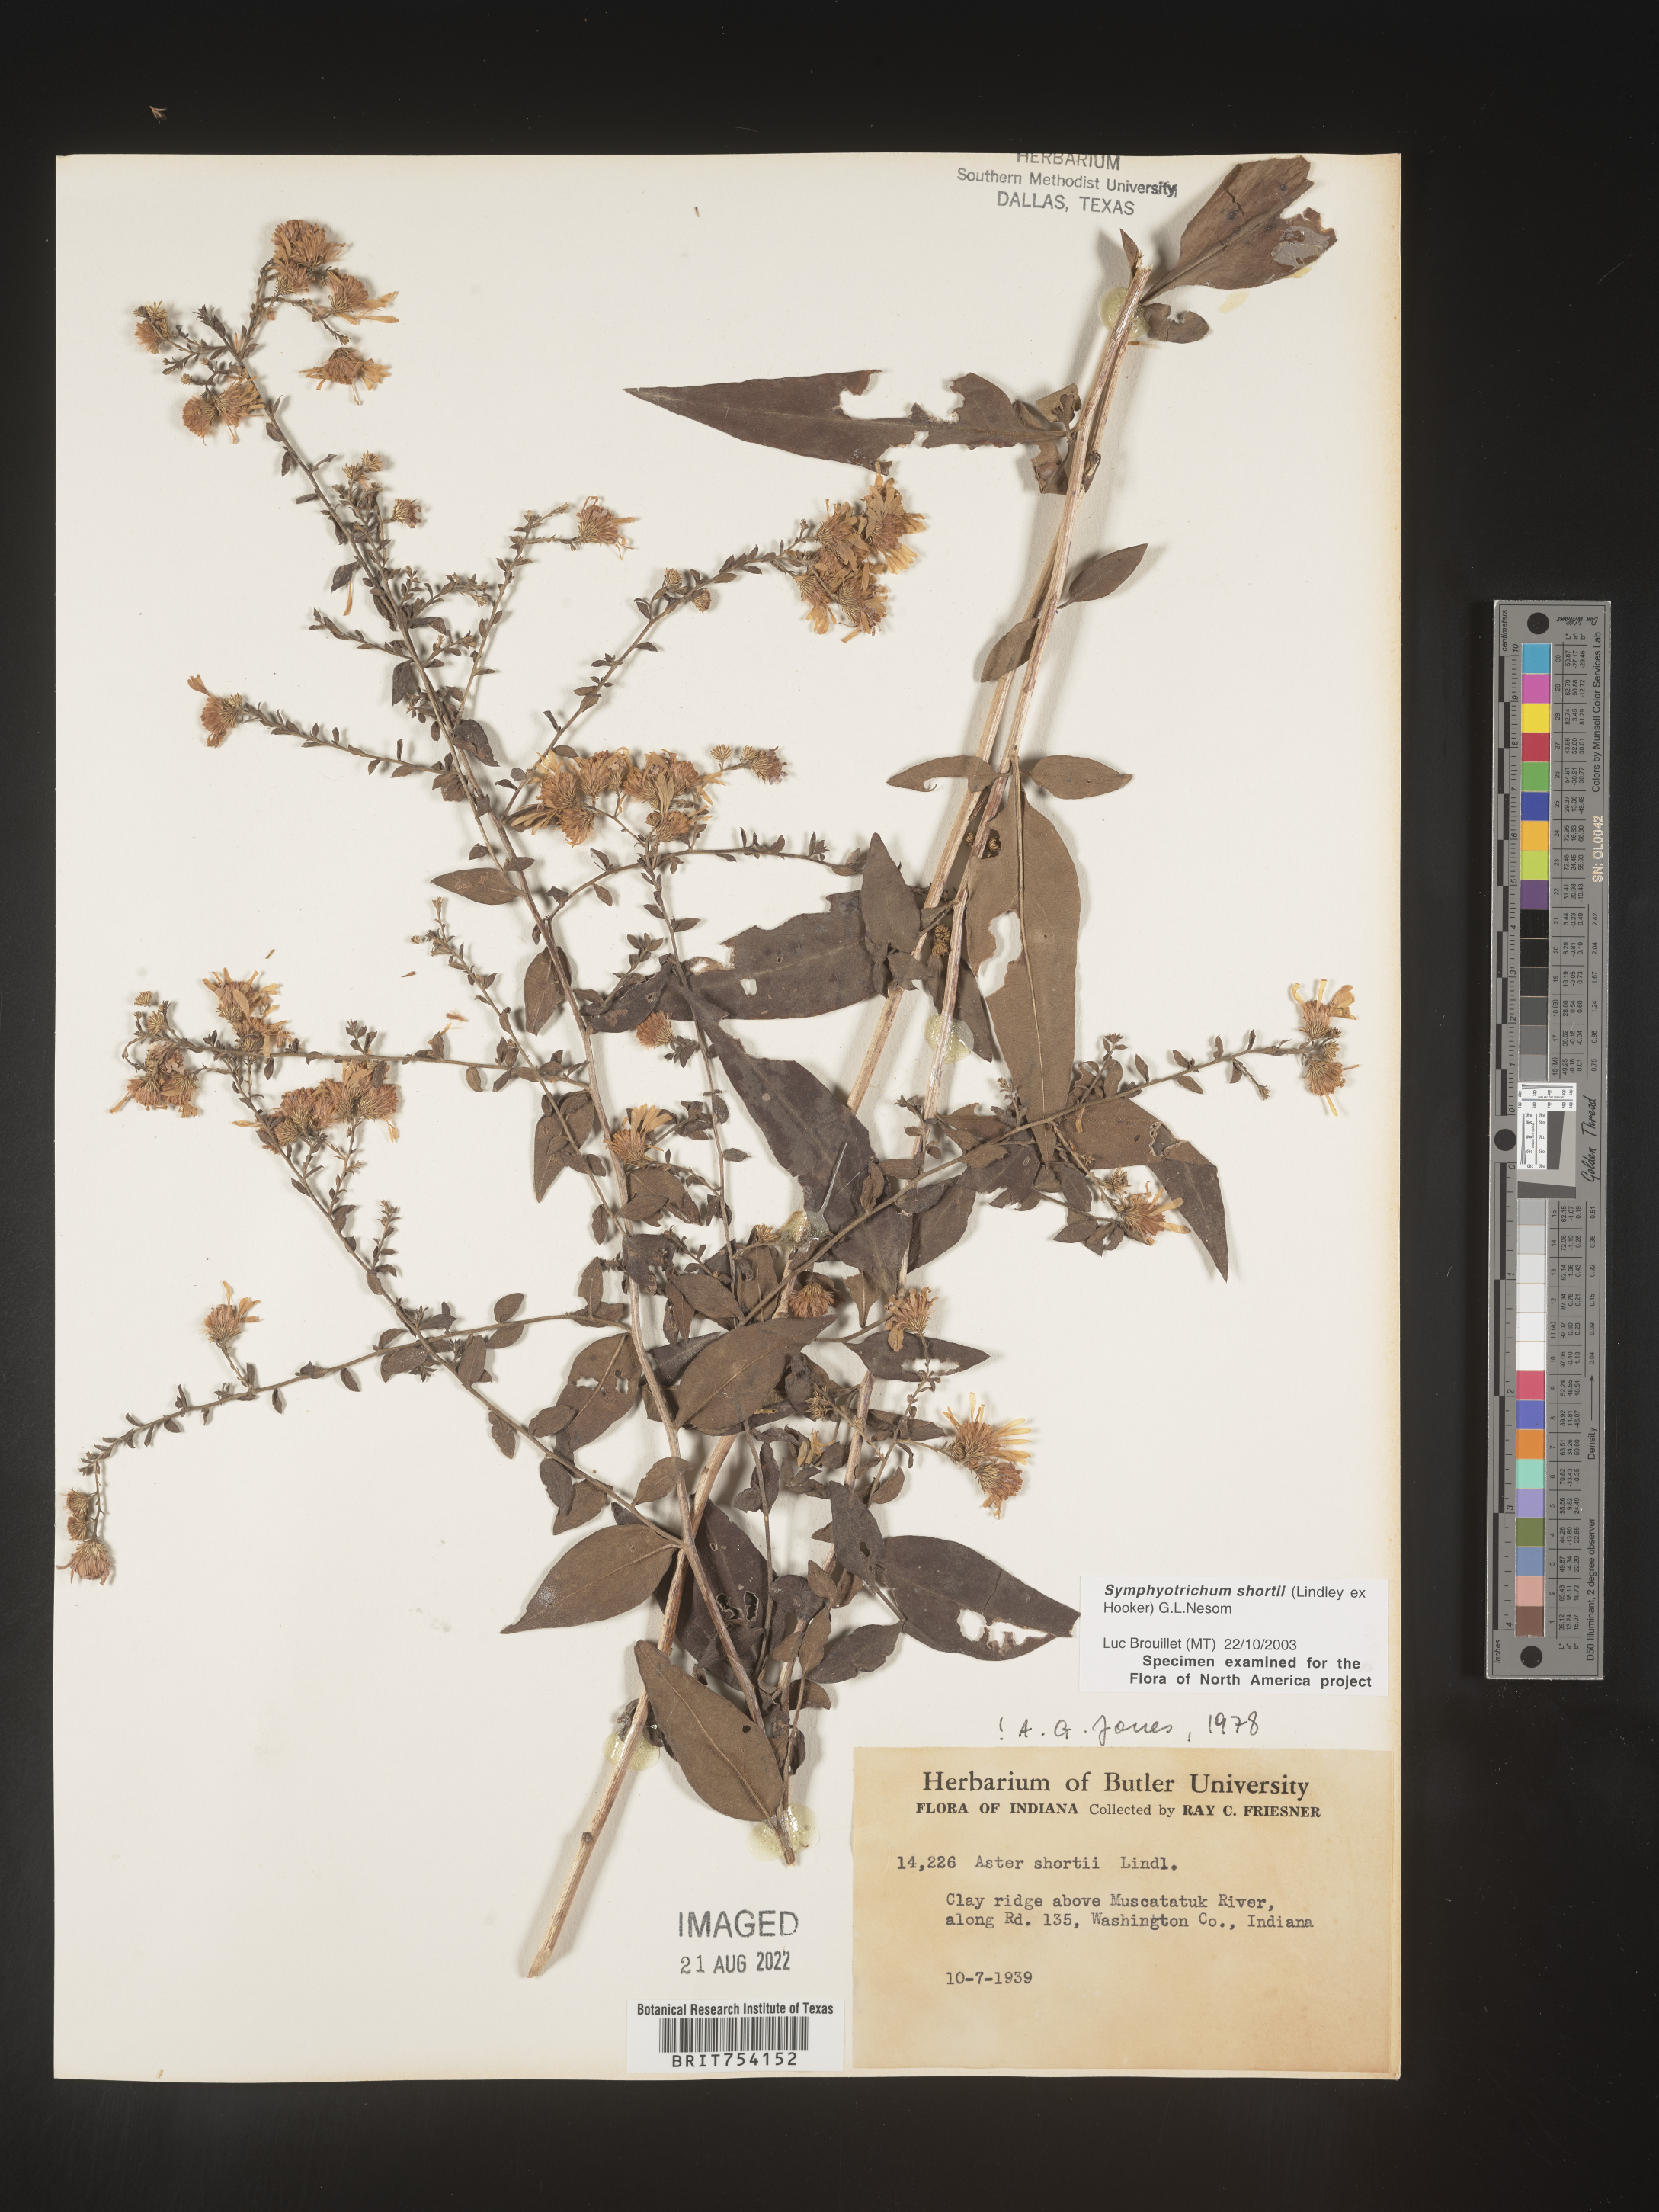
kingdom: Plantae
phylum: Tracheophyta
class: Magnoliopsida
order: Asterales
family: Asteraceae
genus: Symphyotrichum
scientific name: Symphyotrichum shortii
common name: Short's aster
